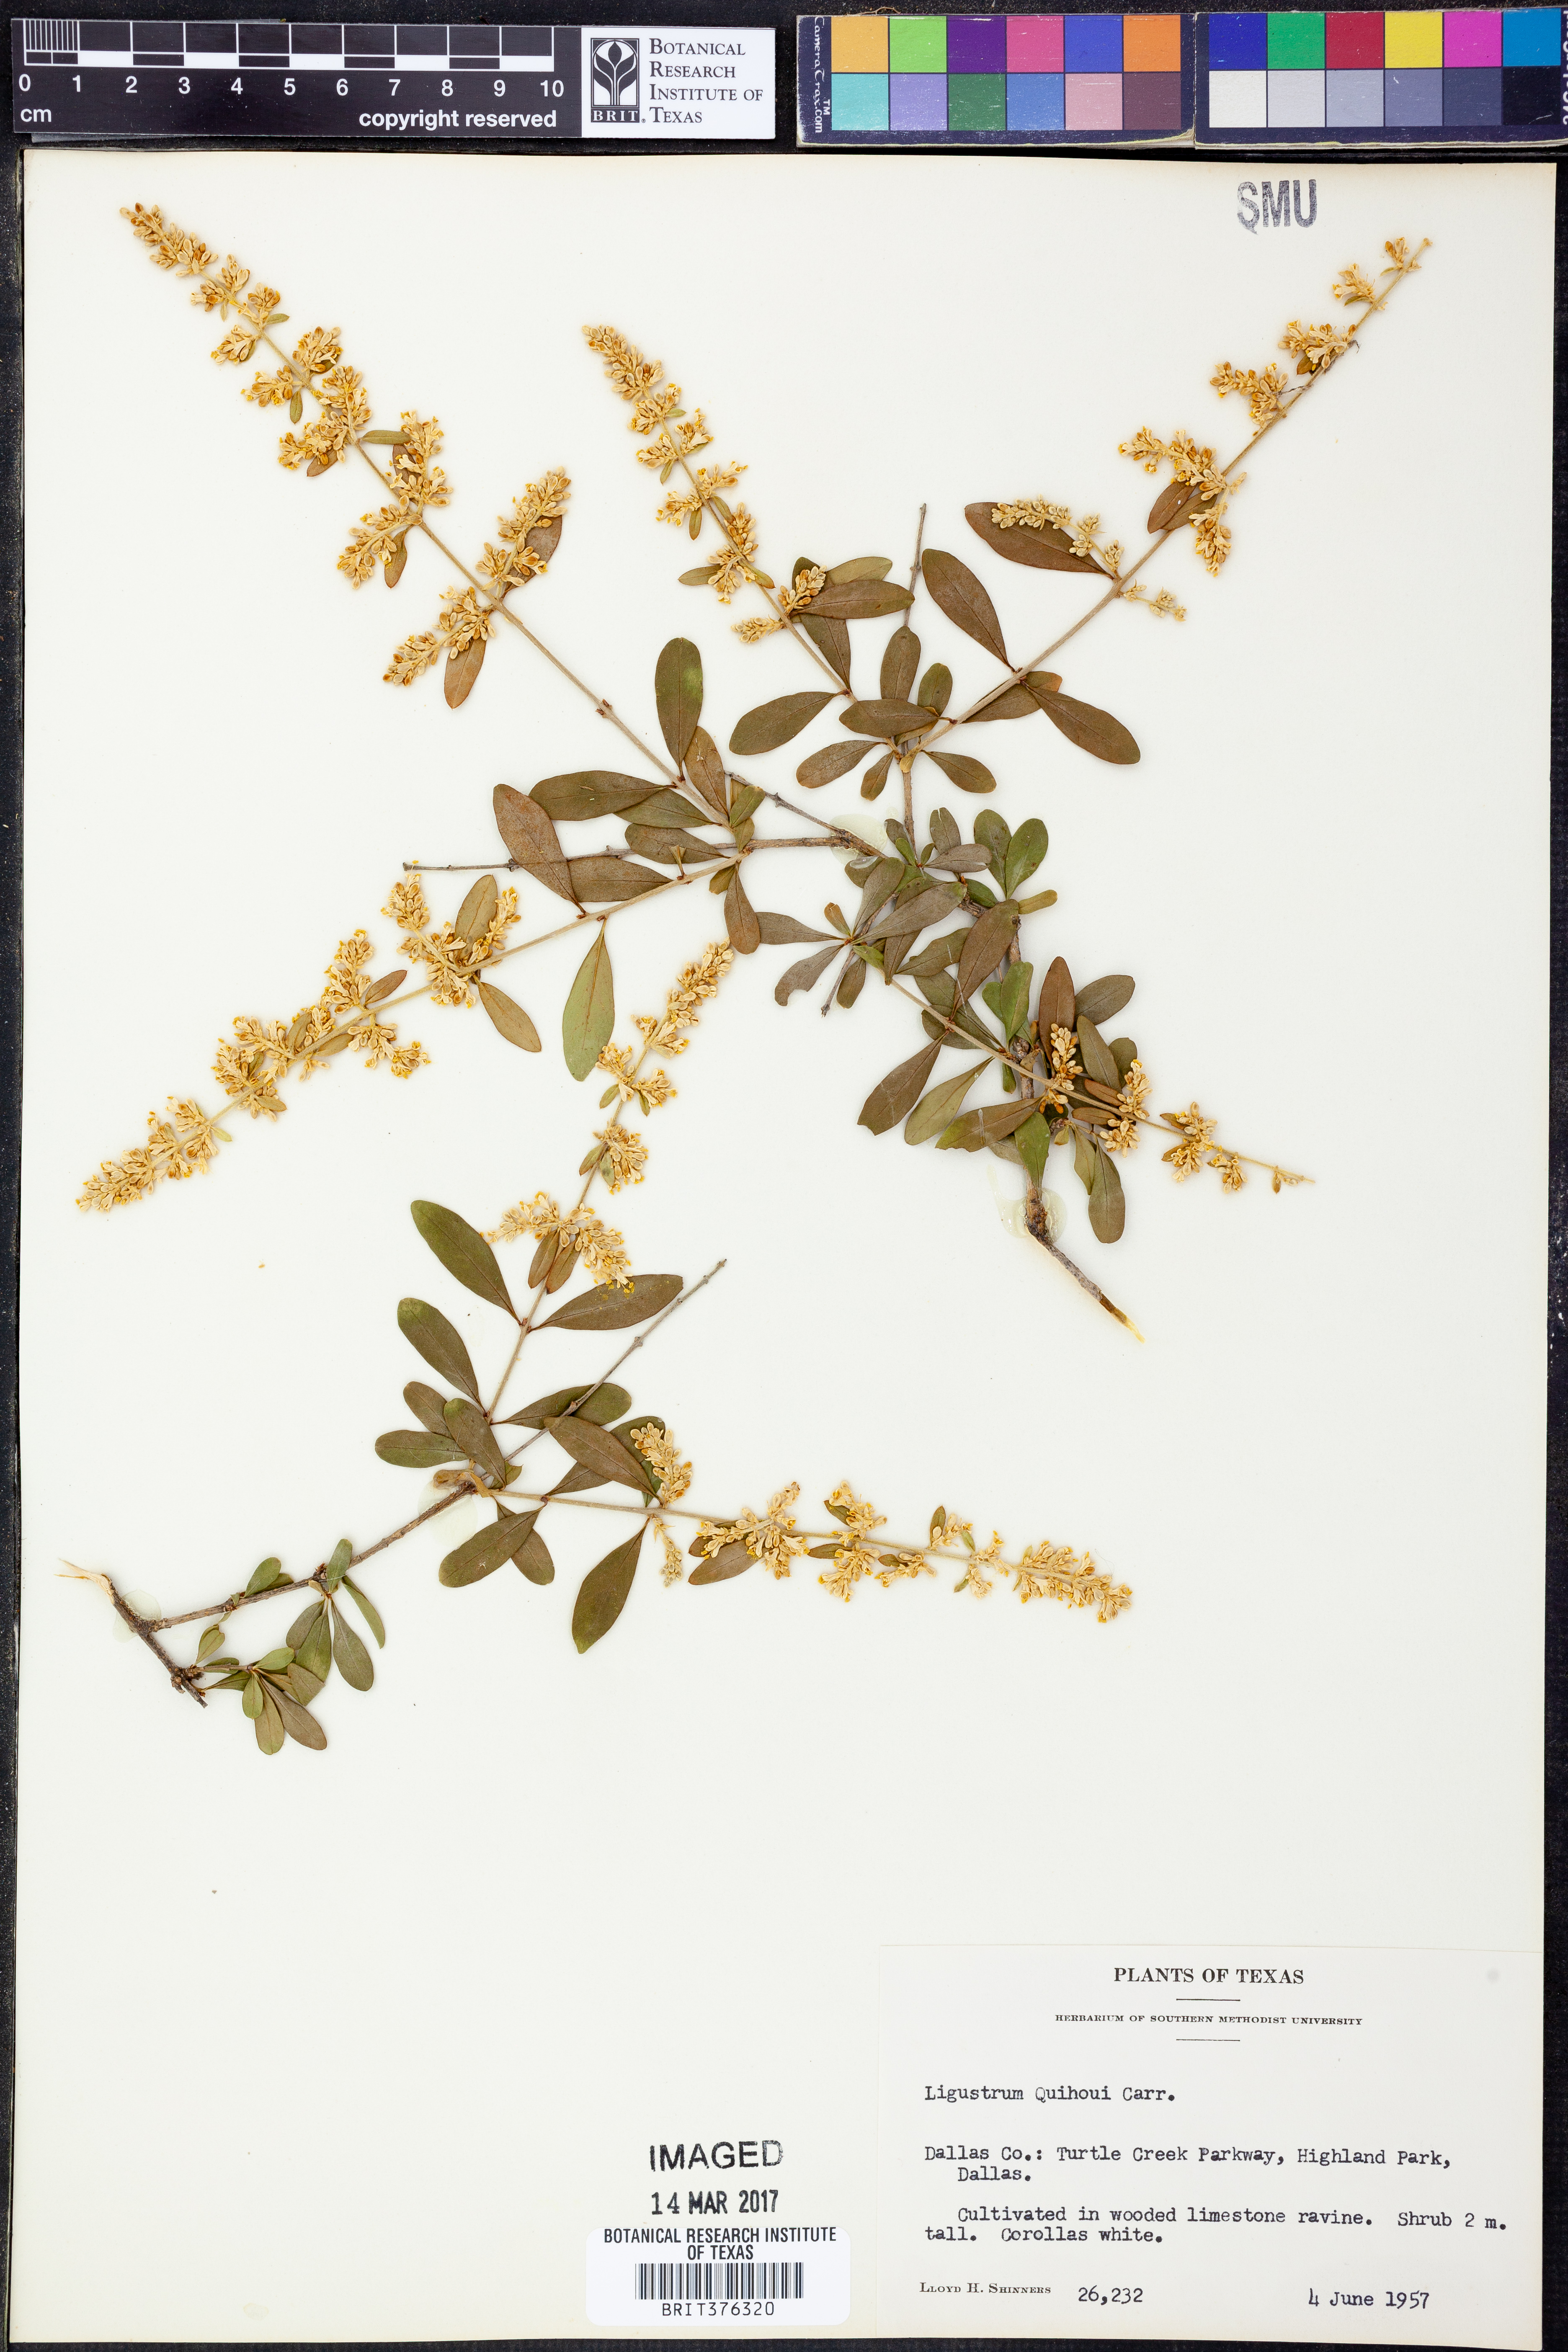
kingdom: Plantae
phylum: Tracheophyta
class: Magnoliopsida
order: Lamiales
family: Oleaceae
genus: Ligustrum
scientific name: Ligustrum quihoui
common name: Waxyleaf privet
